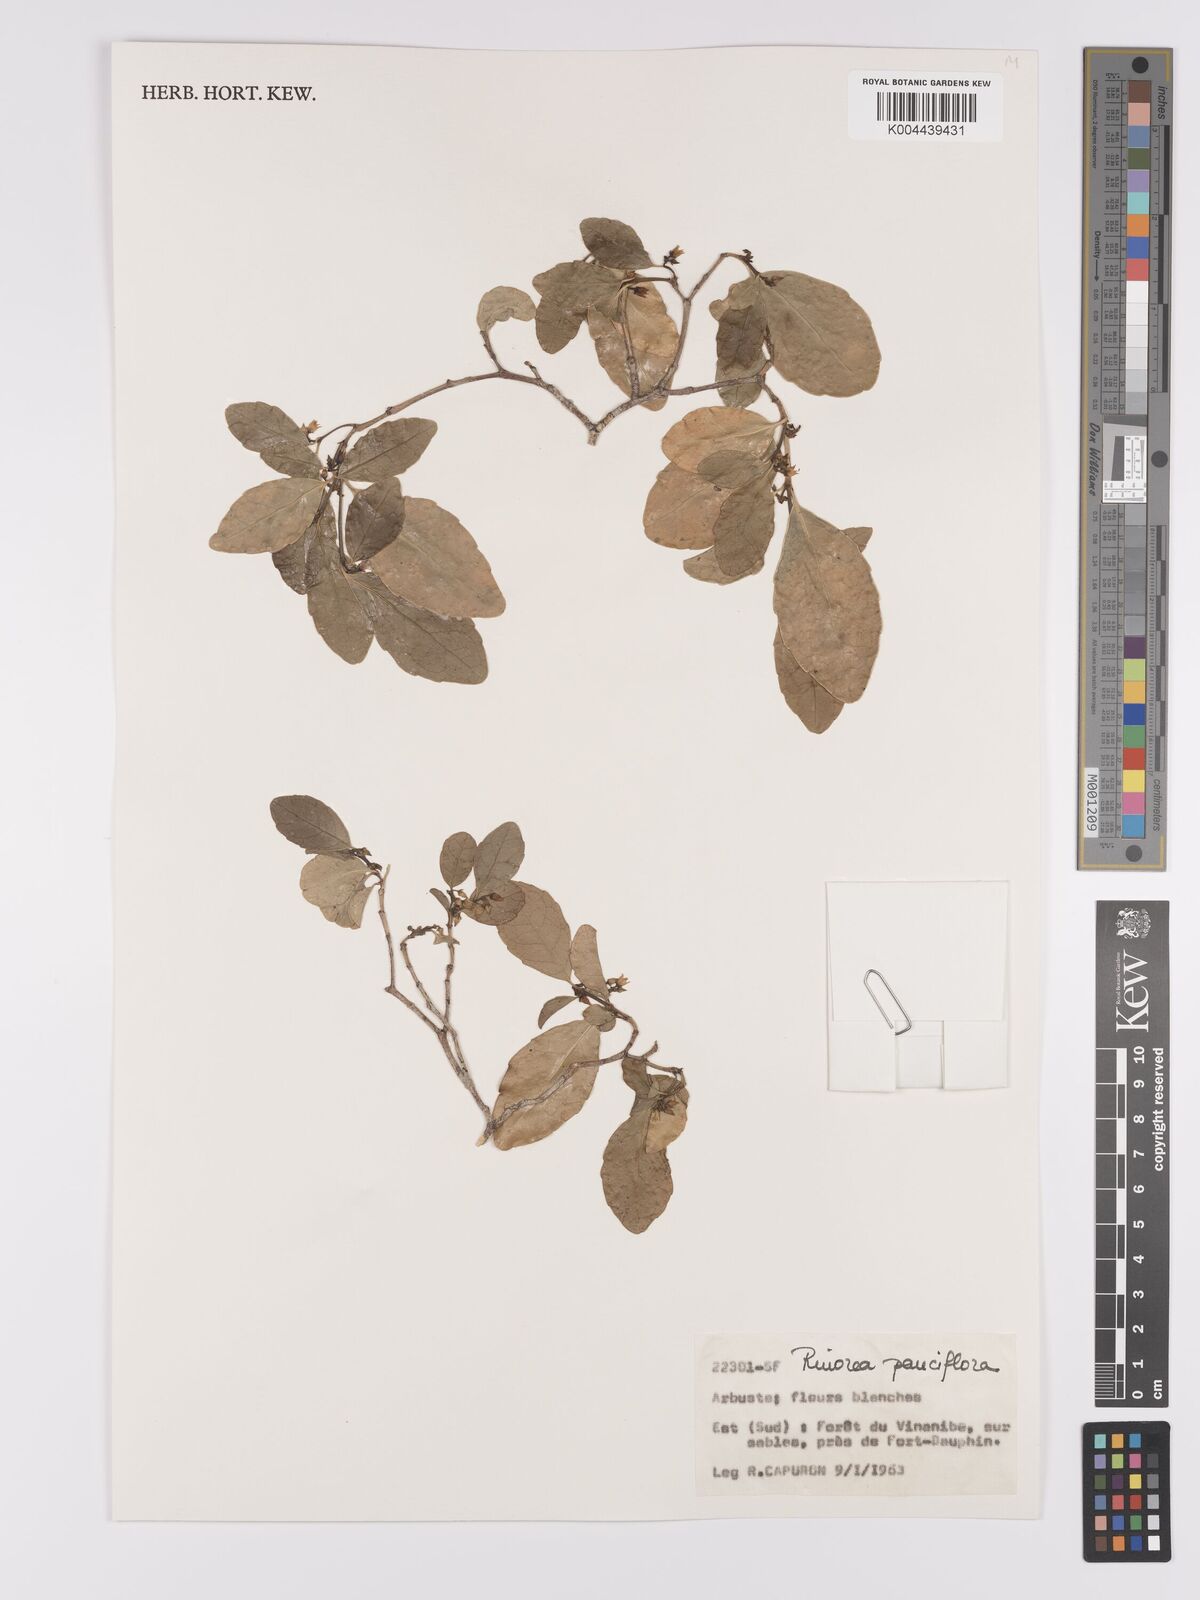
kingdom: Plantae
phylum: Tracheophyta
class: Magnoliopsida
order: Malpighiales
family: Violaceae
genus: Rinorea
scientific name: Rinorea pauciflora
